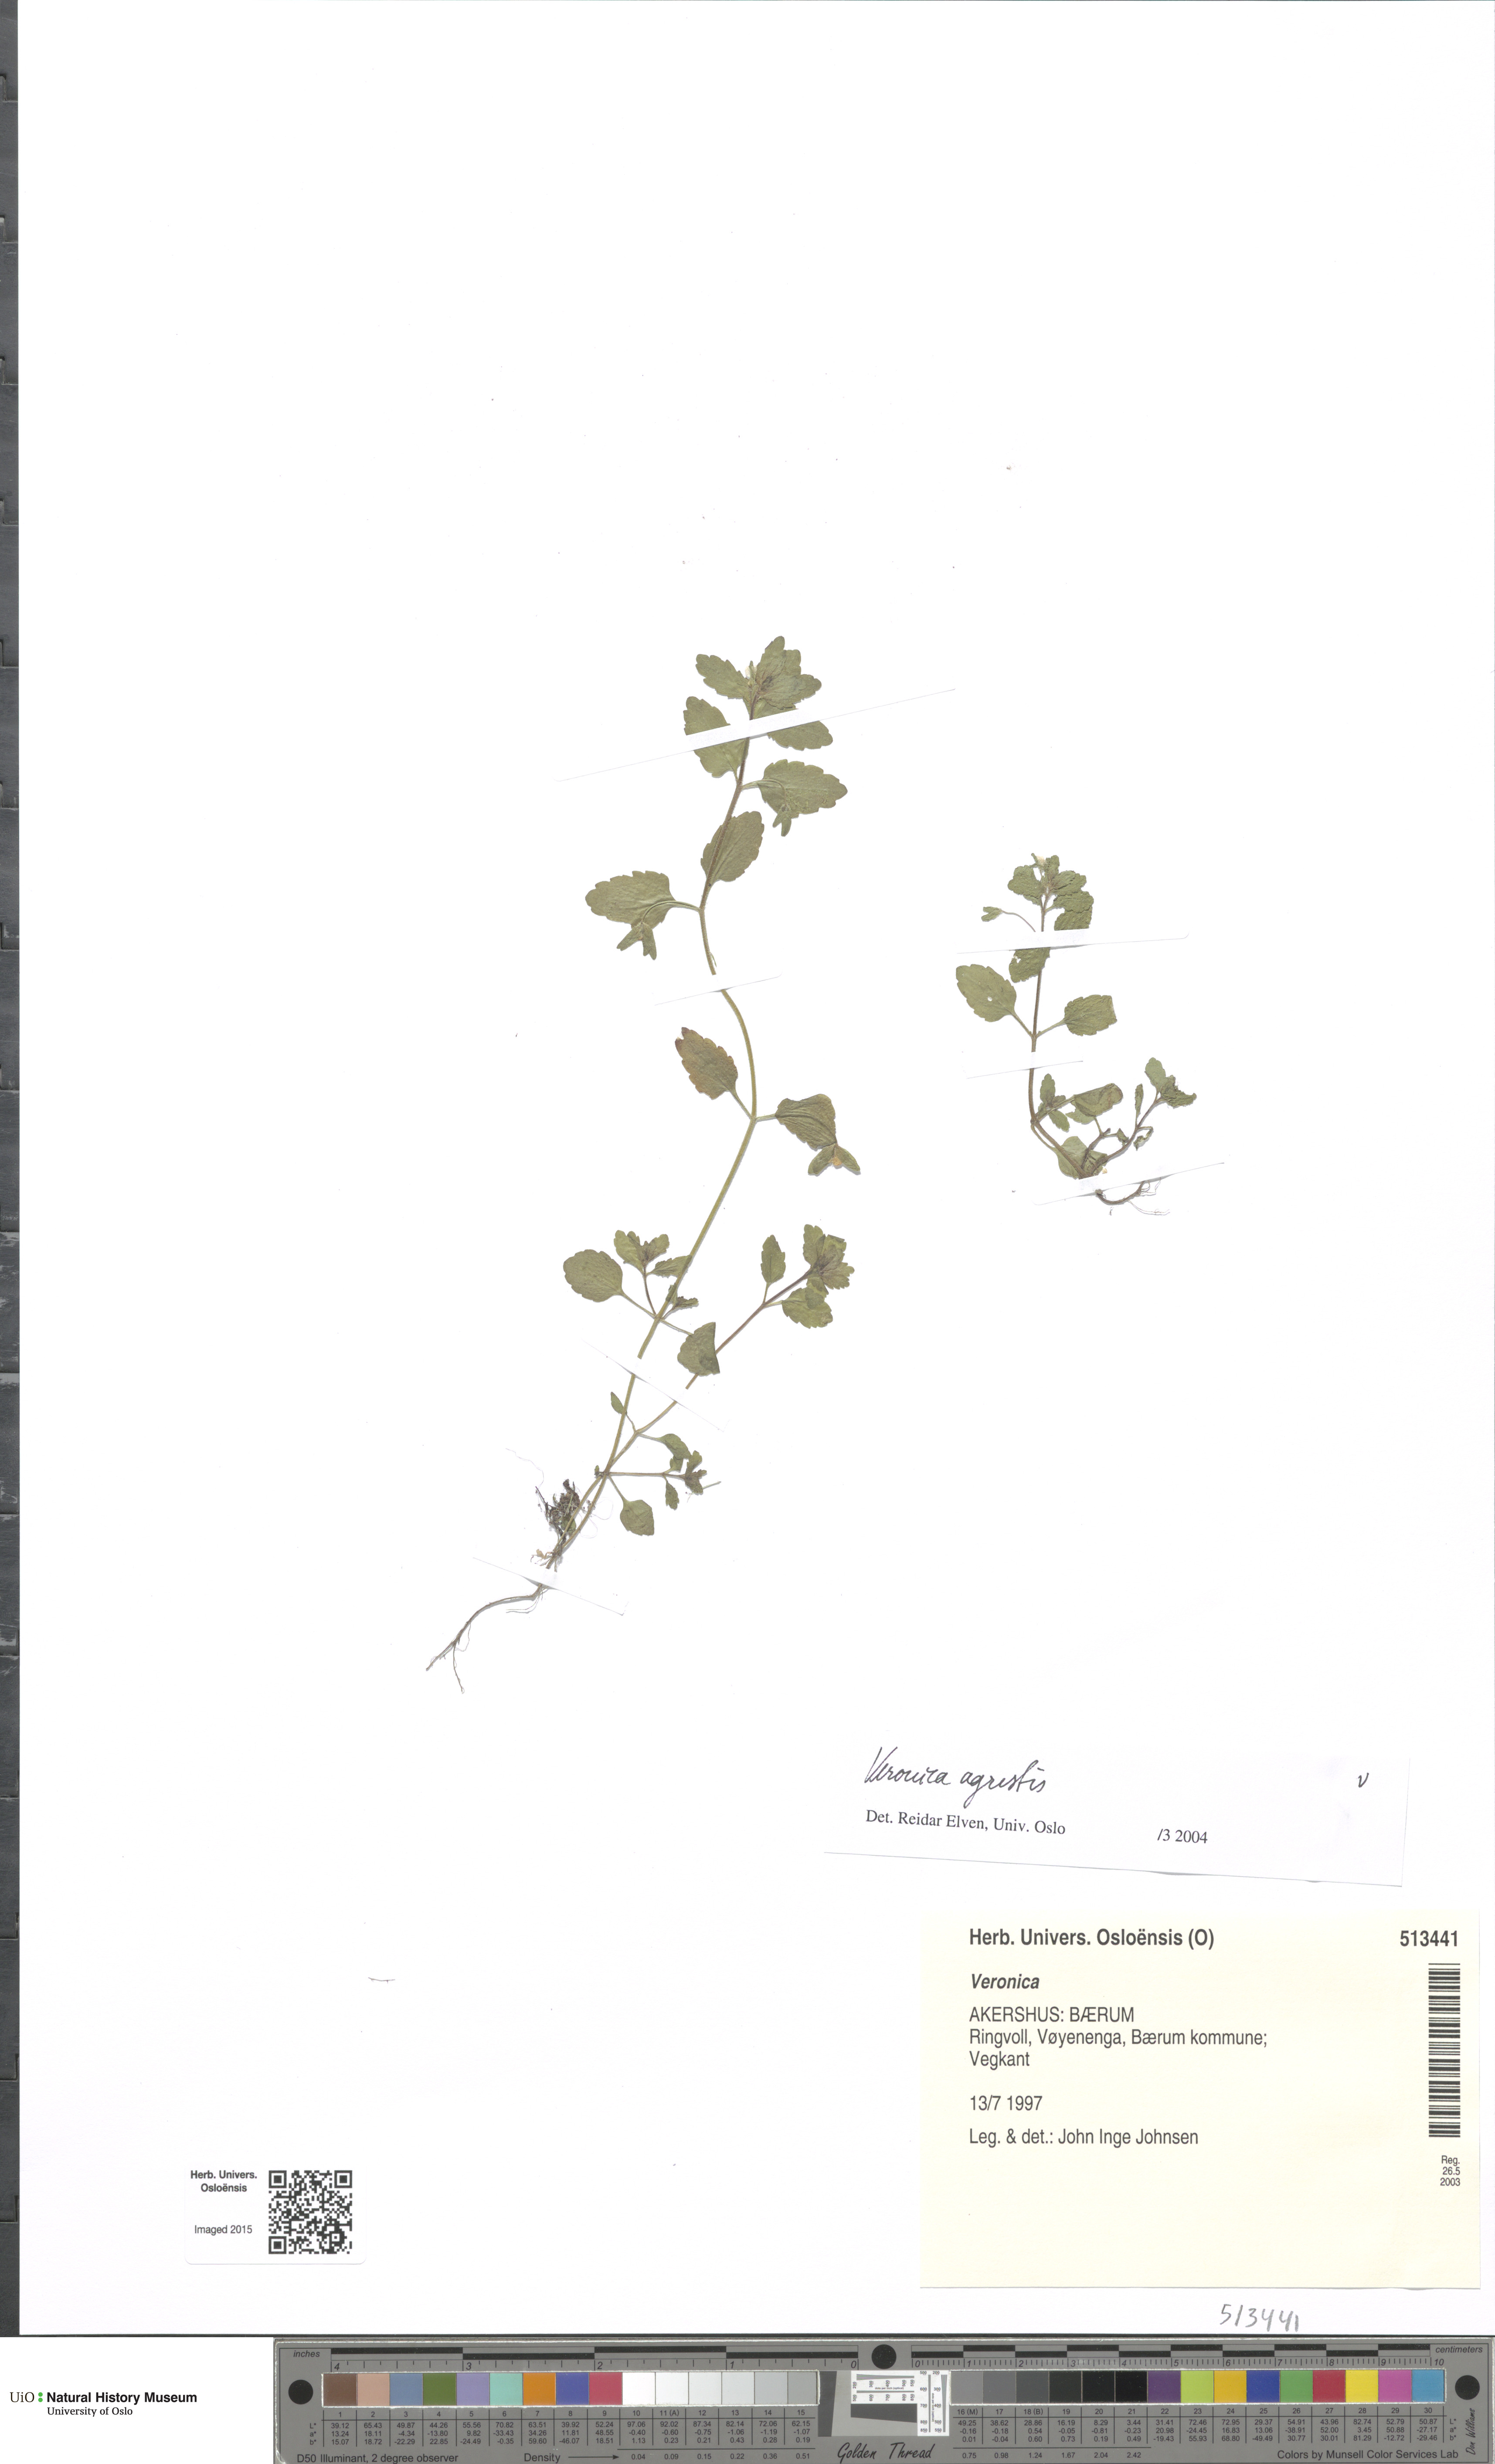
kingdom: Plantae
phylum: Tracheophyta
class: Magnoliopsida
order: Lamiales
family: Plantaginaceae
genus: Veronica
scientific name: Veronica agrestis
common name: Green field-speedwell
